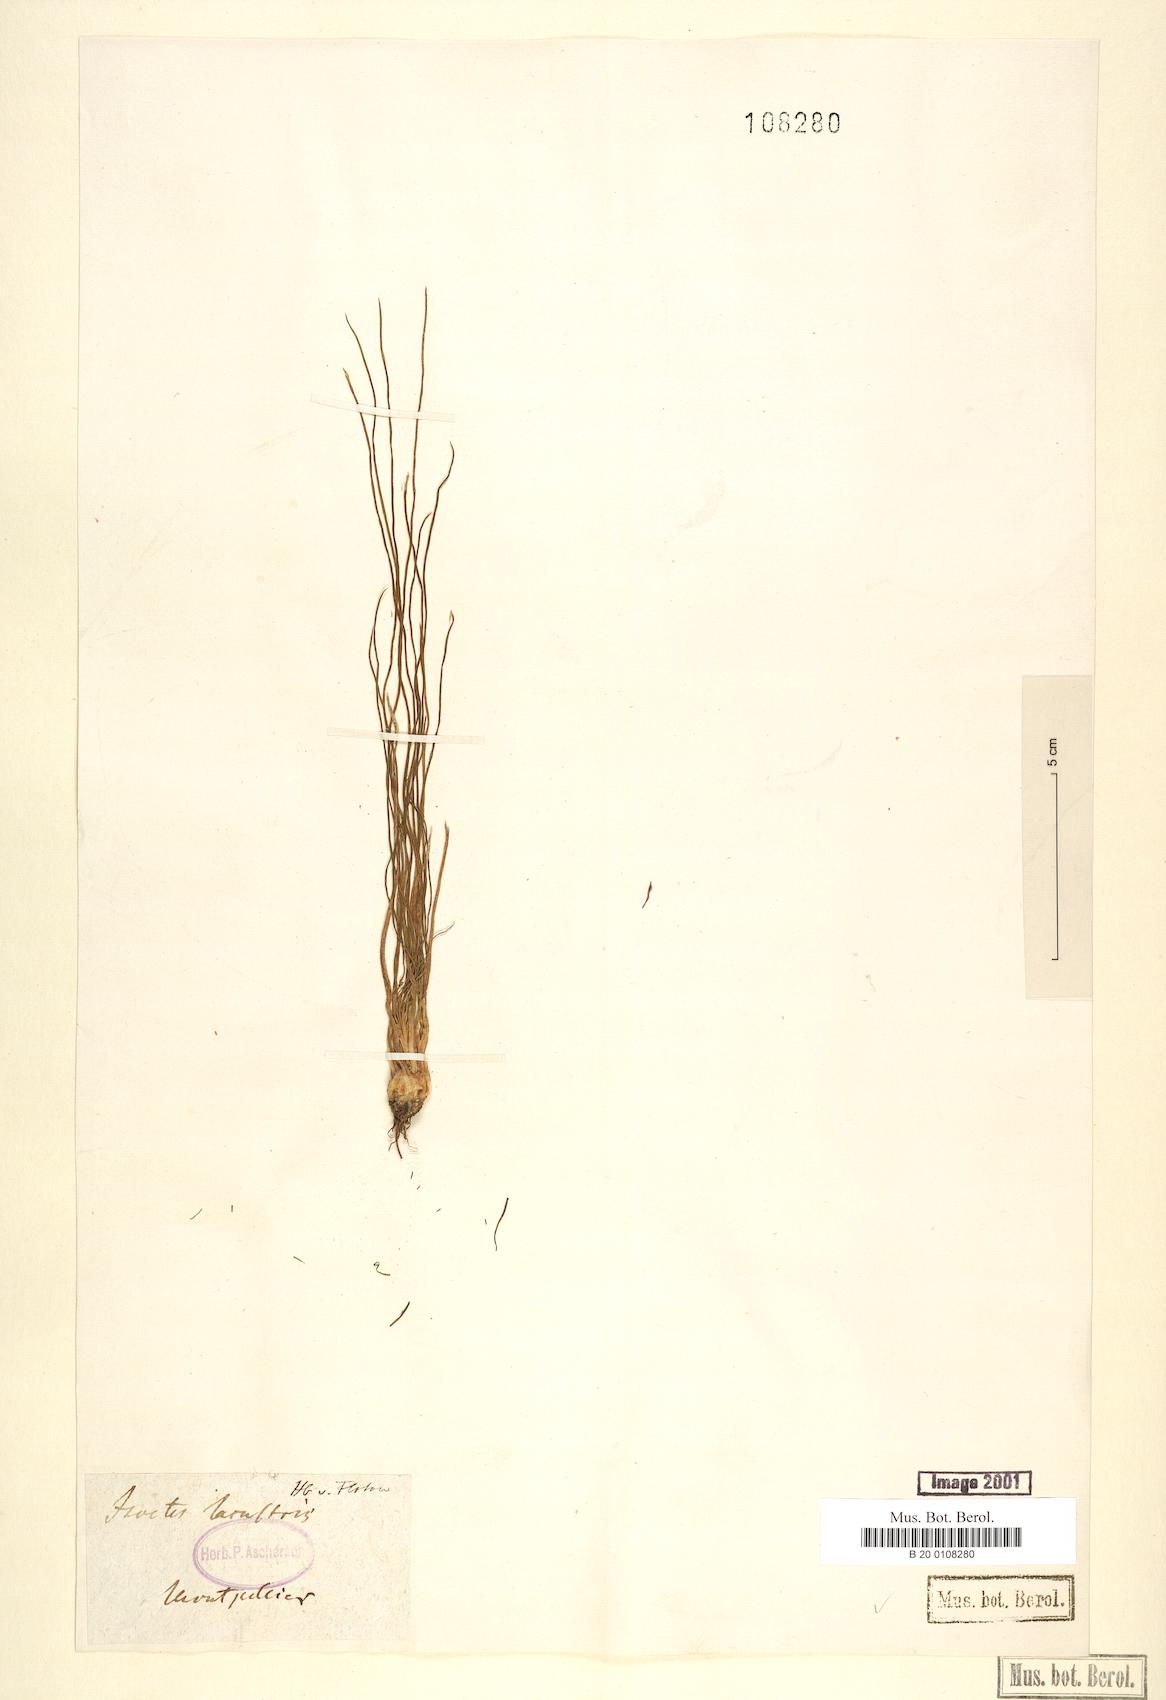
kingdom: Plantae
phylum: Tracheophyta
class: Lycopodiopsida
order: Isoetales
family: Isoetaceae
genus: Isoetes
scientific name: Isoetes lacustris
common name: Common quillwort
